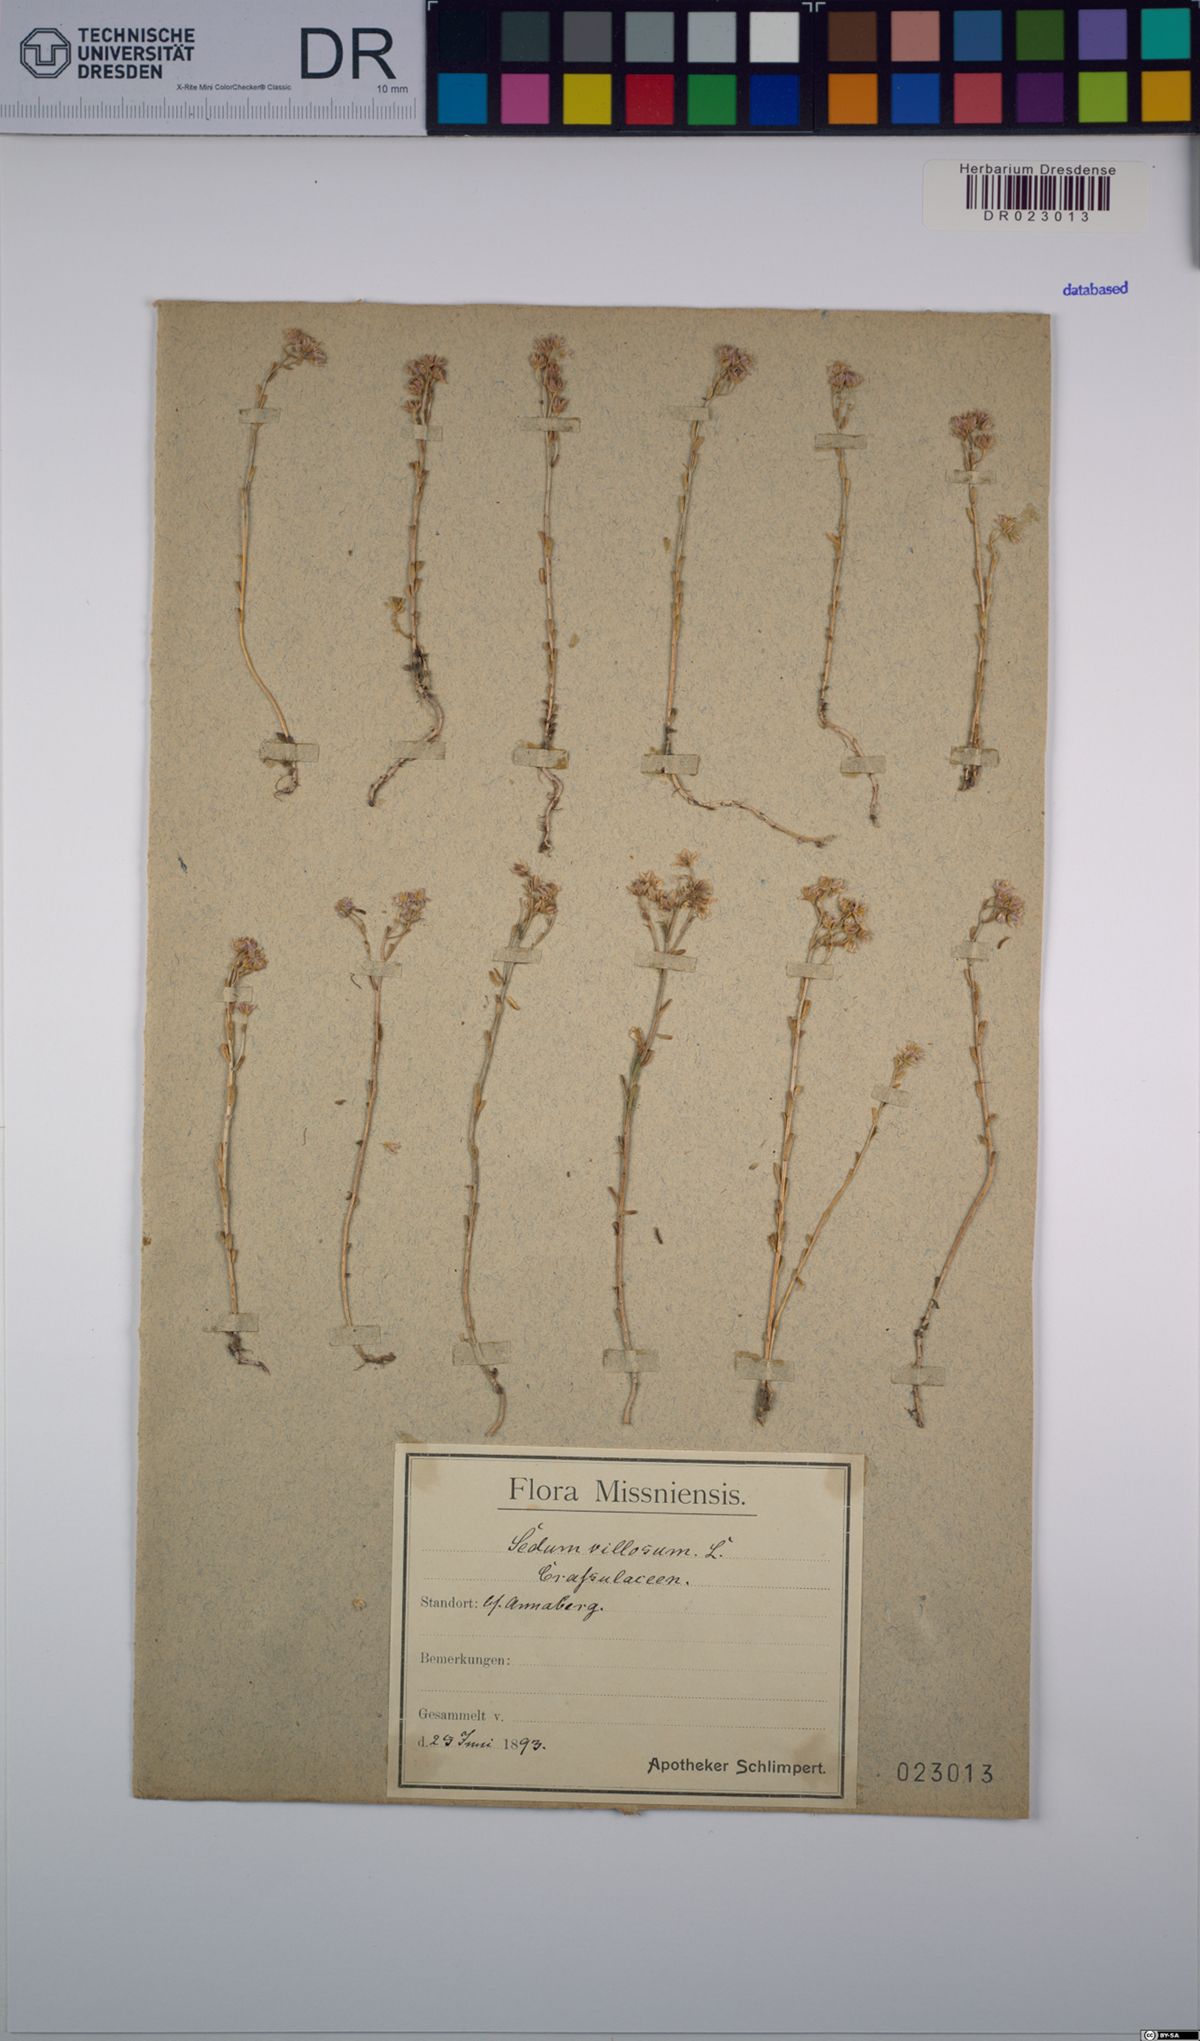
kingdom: Plantae
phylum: Tracheophyta
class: Magnoliopsida
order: Saxifragales
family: Crassulaceae
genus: Sedum
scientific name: Sedum villosum
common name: Hairy stonecrop
